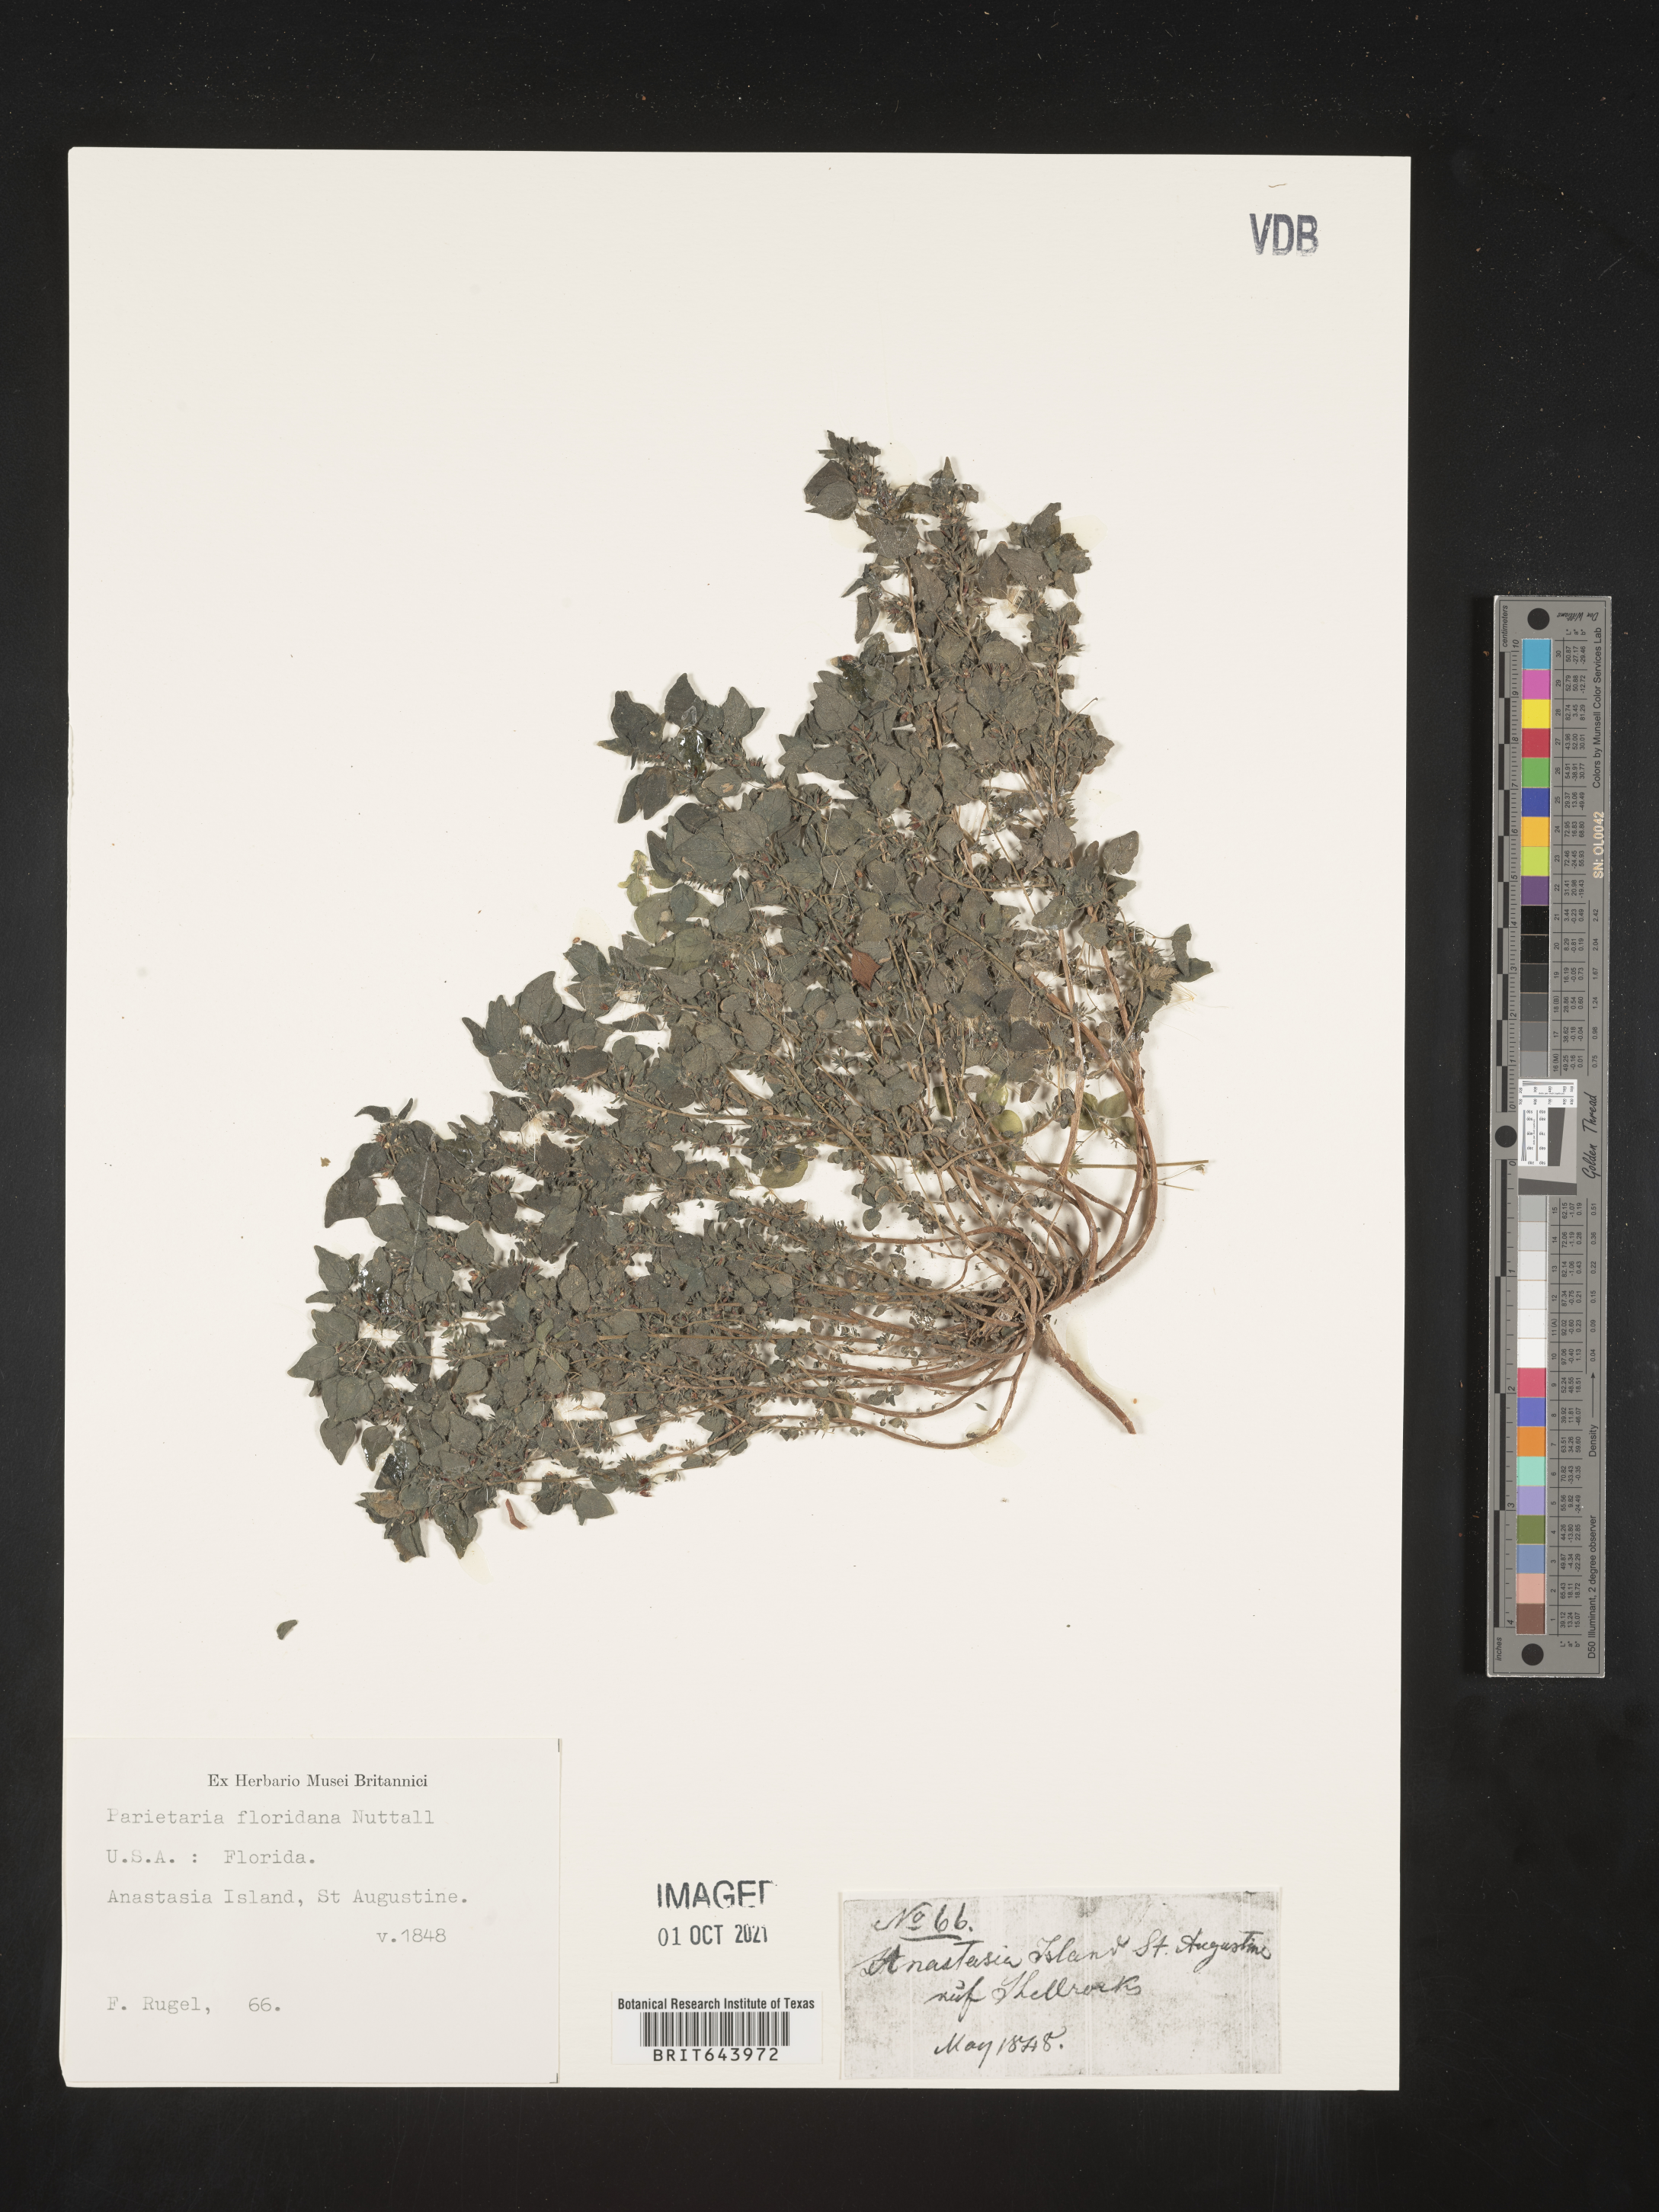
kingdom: Plantae
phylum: Tracheophyta
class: Magnoliopsida
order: Rosales
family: Urticaceae
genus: Parietaria
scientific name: Parietaria floridana
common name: Florida pellitory
